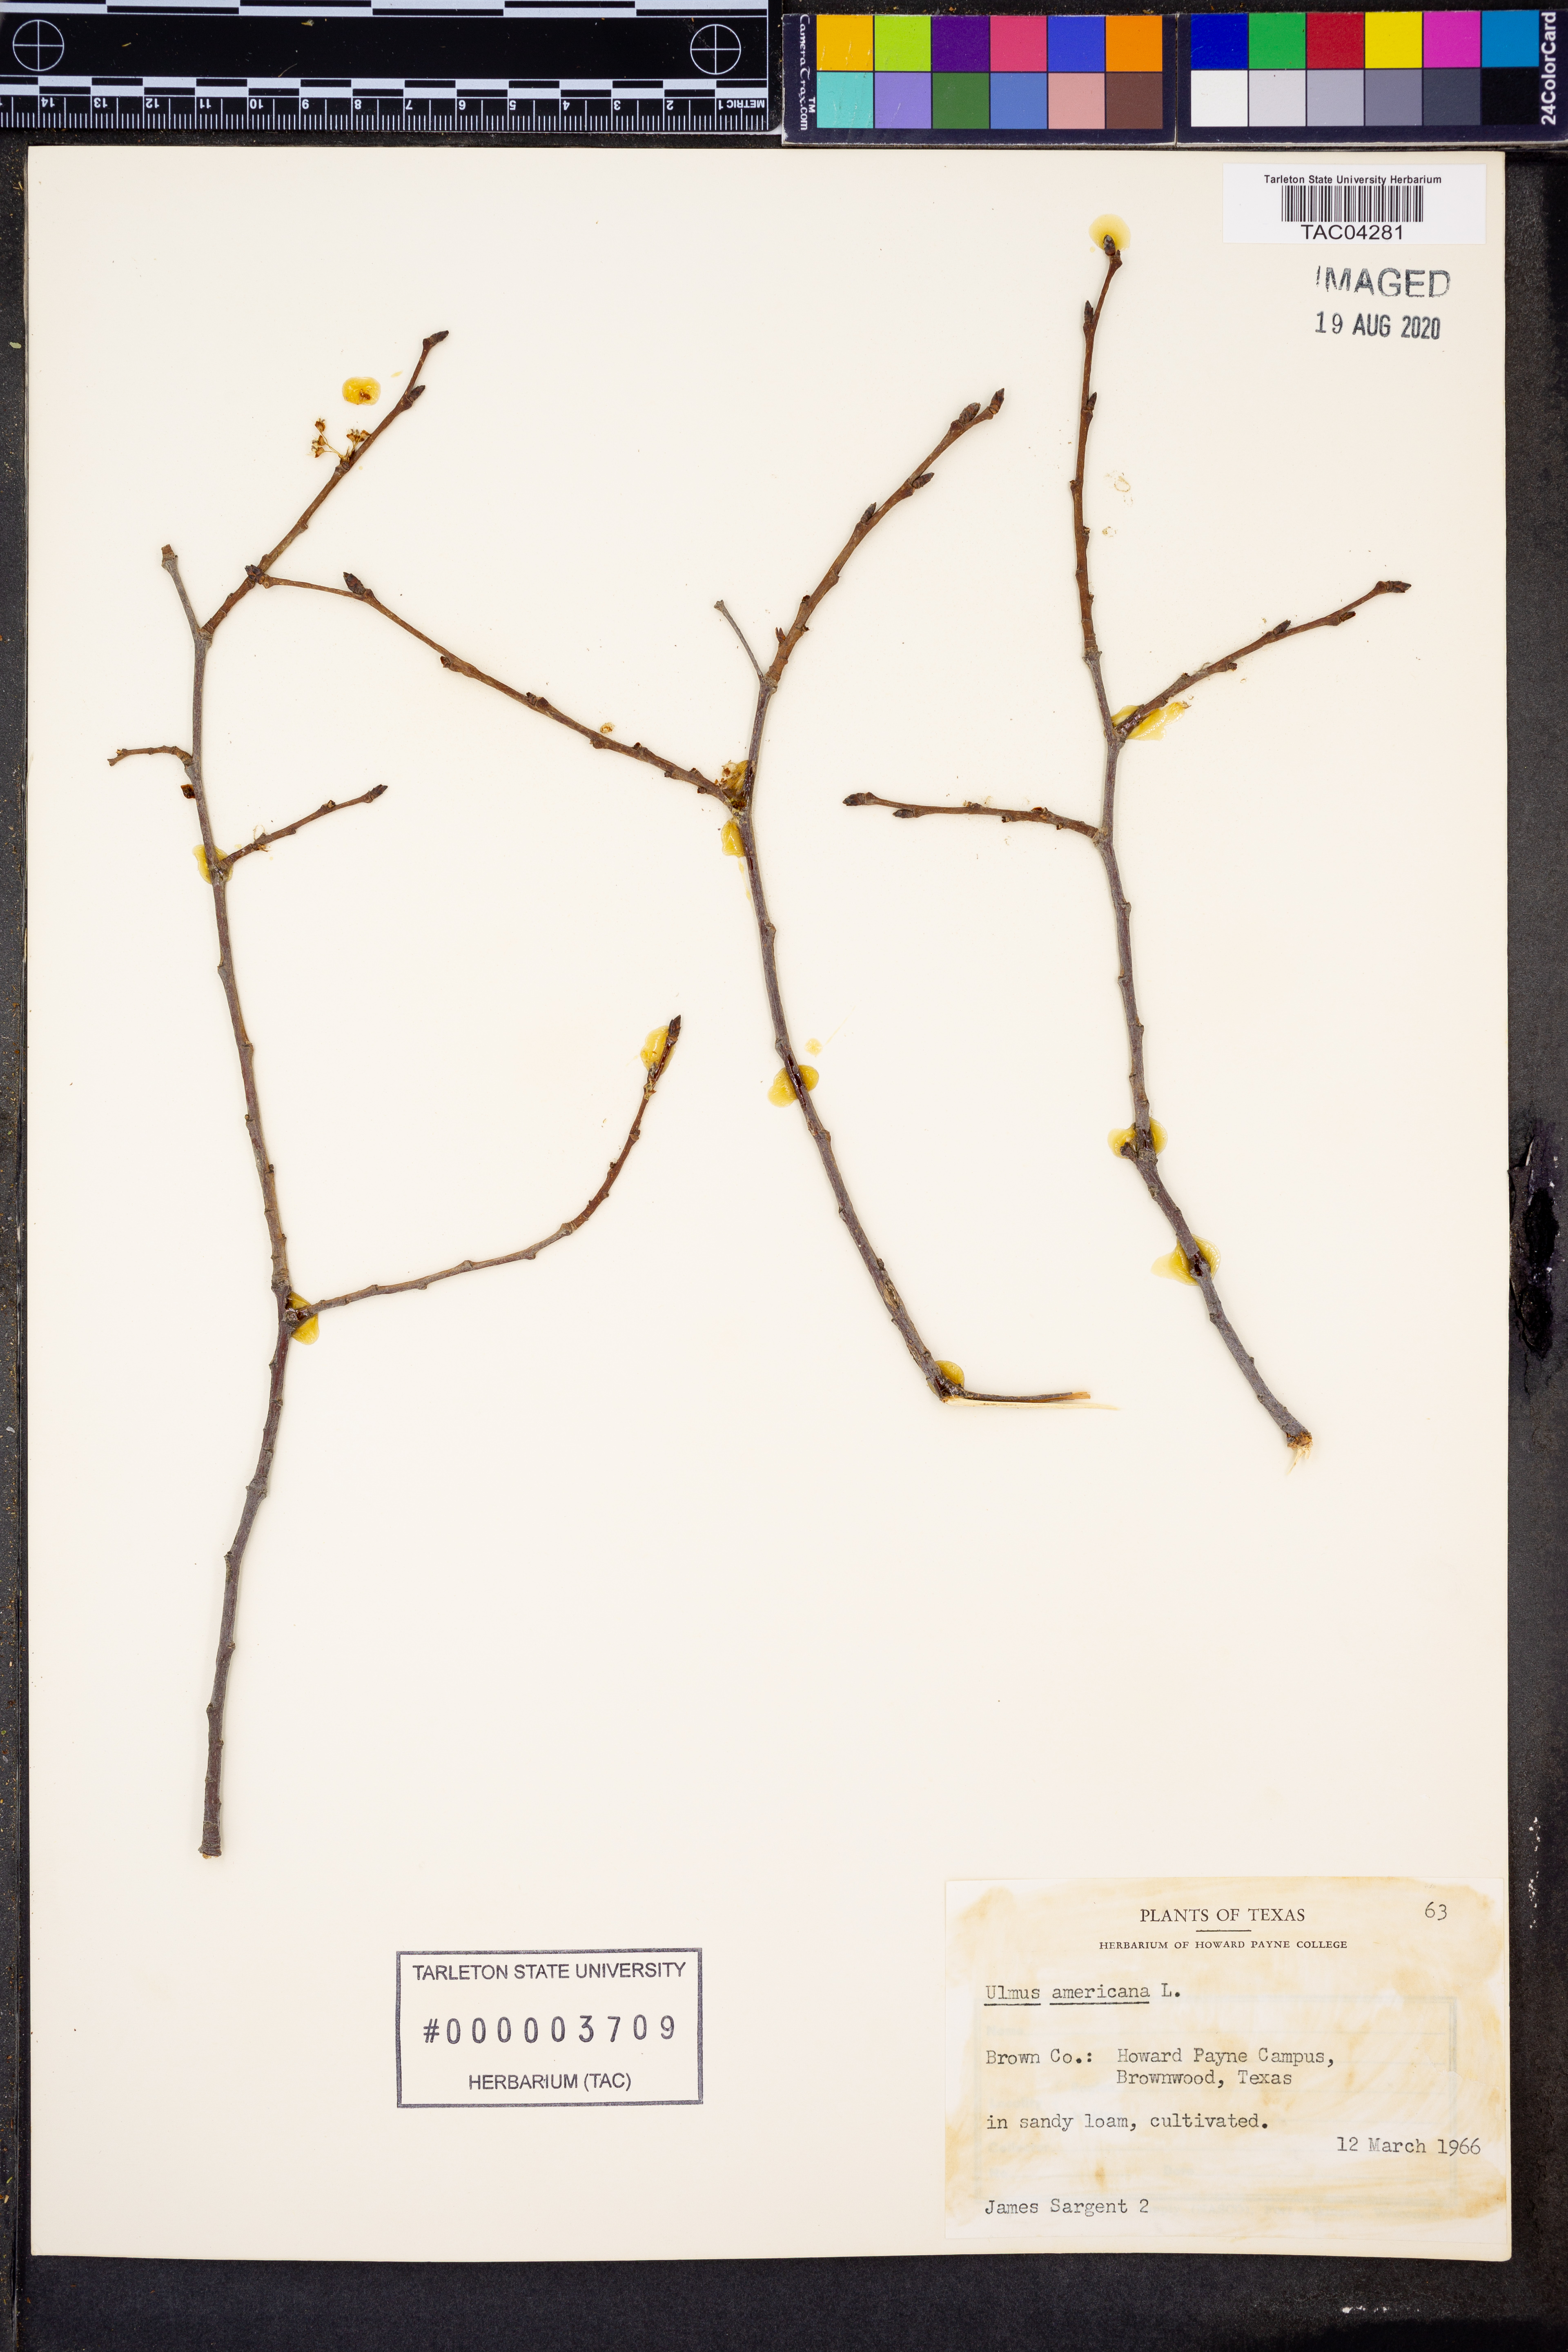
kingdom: Plantae
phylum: Tracheophyta
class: Magnoliopsida
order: Rosales
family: Ulmaceae
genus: Ulmus
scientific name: Ulmus americana
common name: American elm
